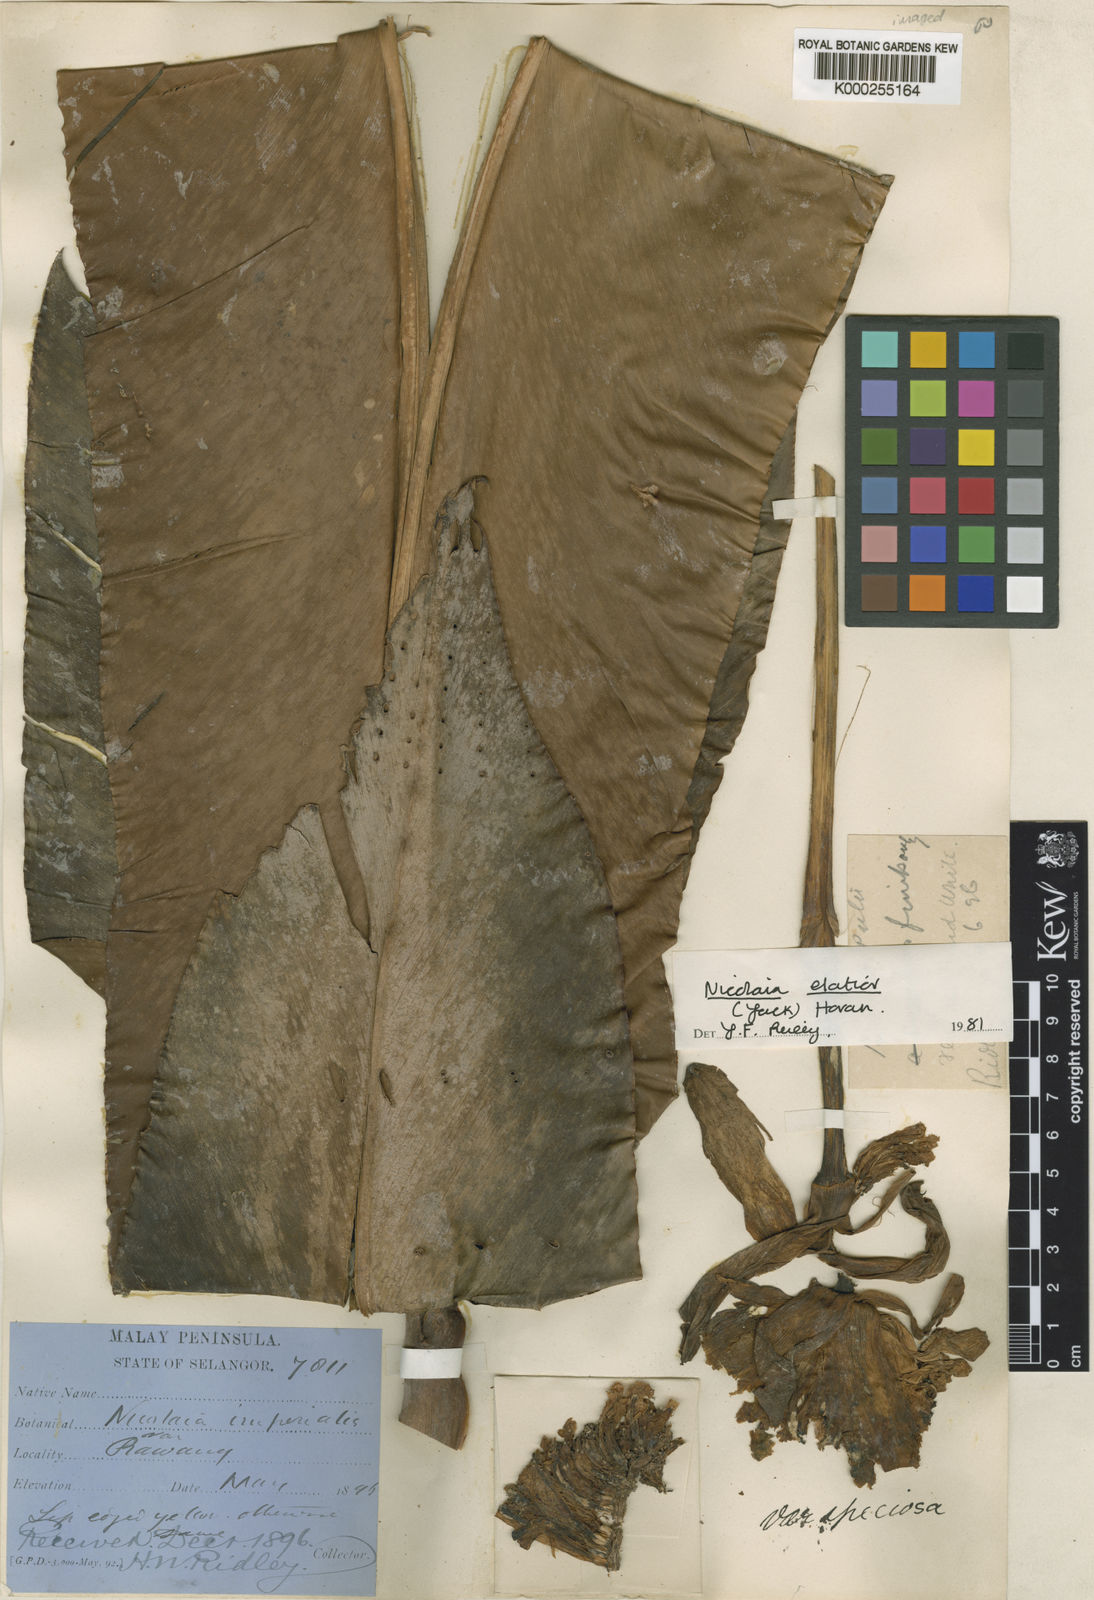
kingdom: Plantae
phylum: Tracheophyta
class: Liliopsida
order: Zingiberales
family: Zingiberaceae
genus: Etlingera
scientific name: Etlingera elatior
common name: Philippine waxflower
